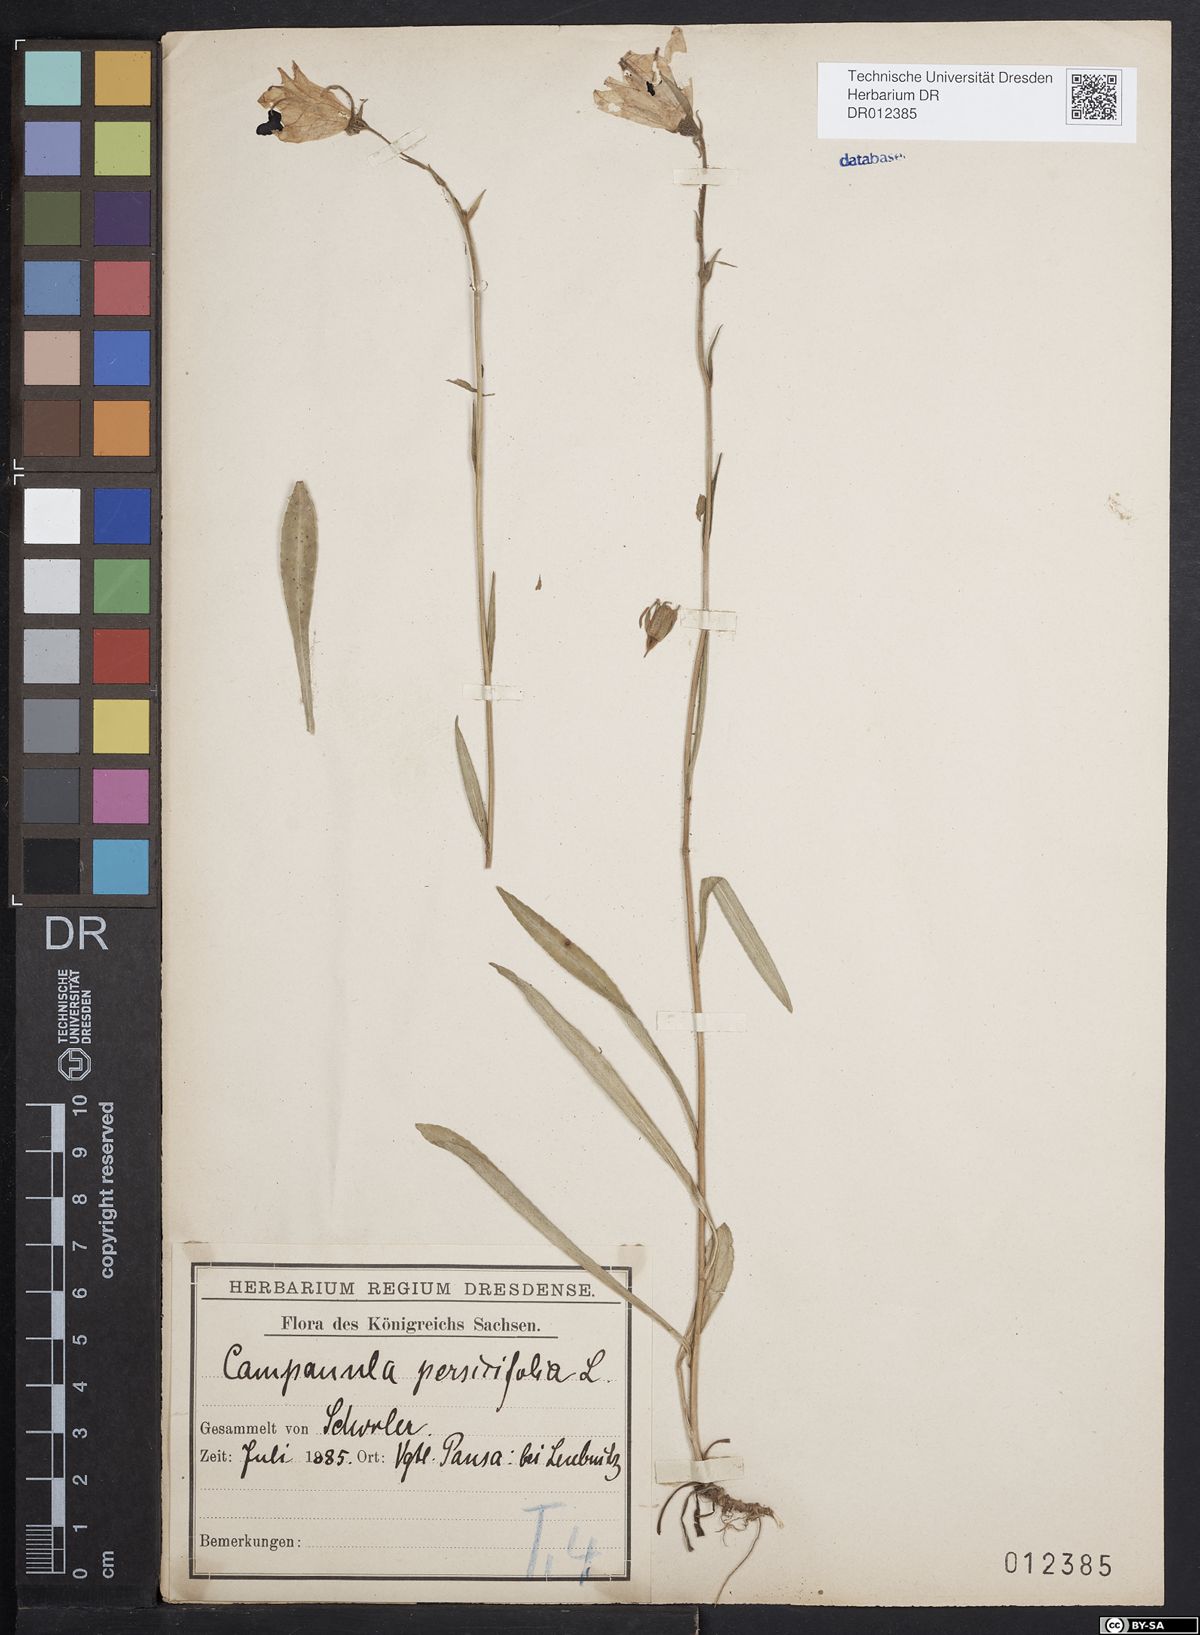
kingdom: Plantae
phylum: Tracheophyta
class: Magnoliopsida
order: Asterales
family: Campanulaceae
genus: Campanula
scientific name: Campanula persicifolia
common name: Peach-leaved bellflower
